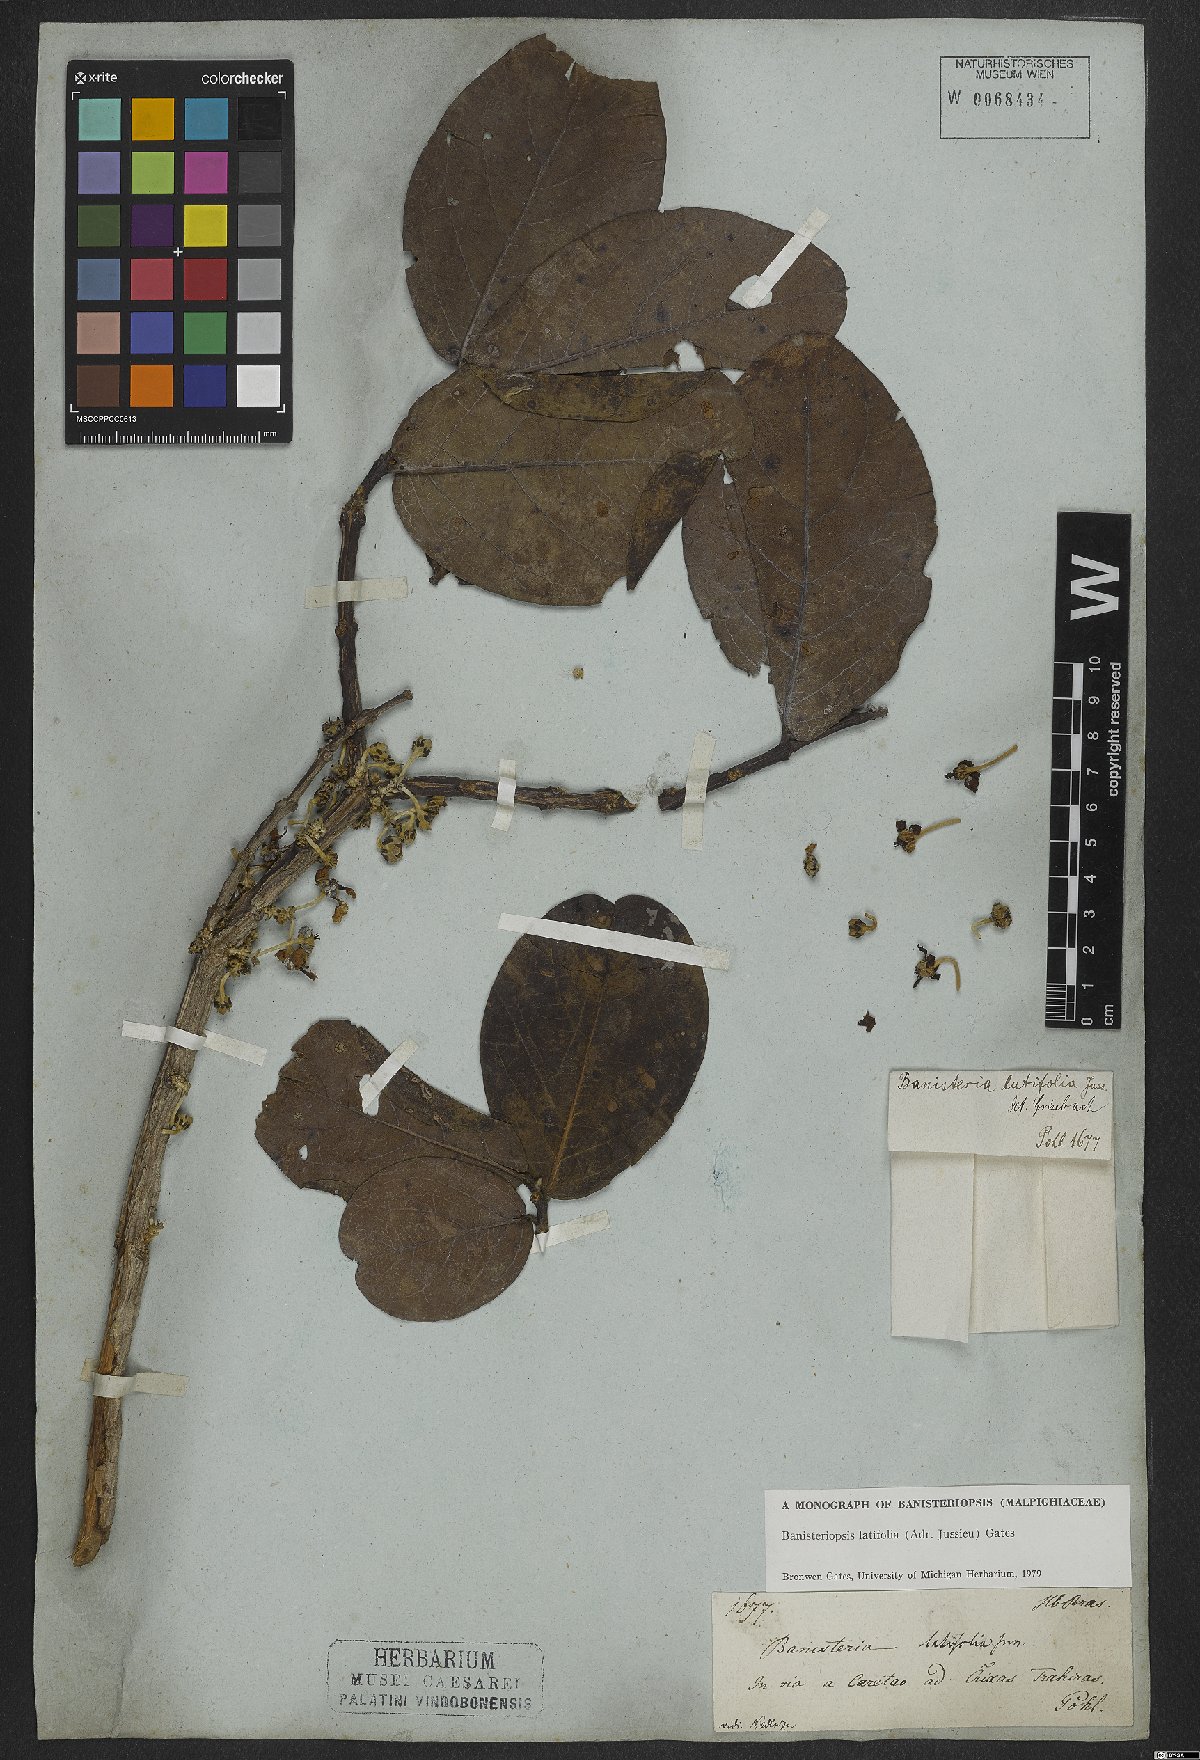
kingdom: Plantae
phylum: Tracheophyta
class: Magnoliopsida
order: Malpighiales
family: Malpighiaceae
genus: Banisteriopsis
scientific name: Banisteriopsis latifolia
